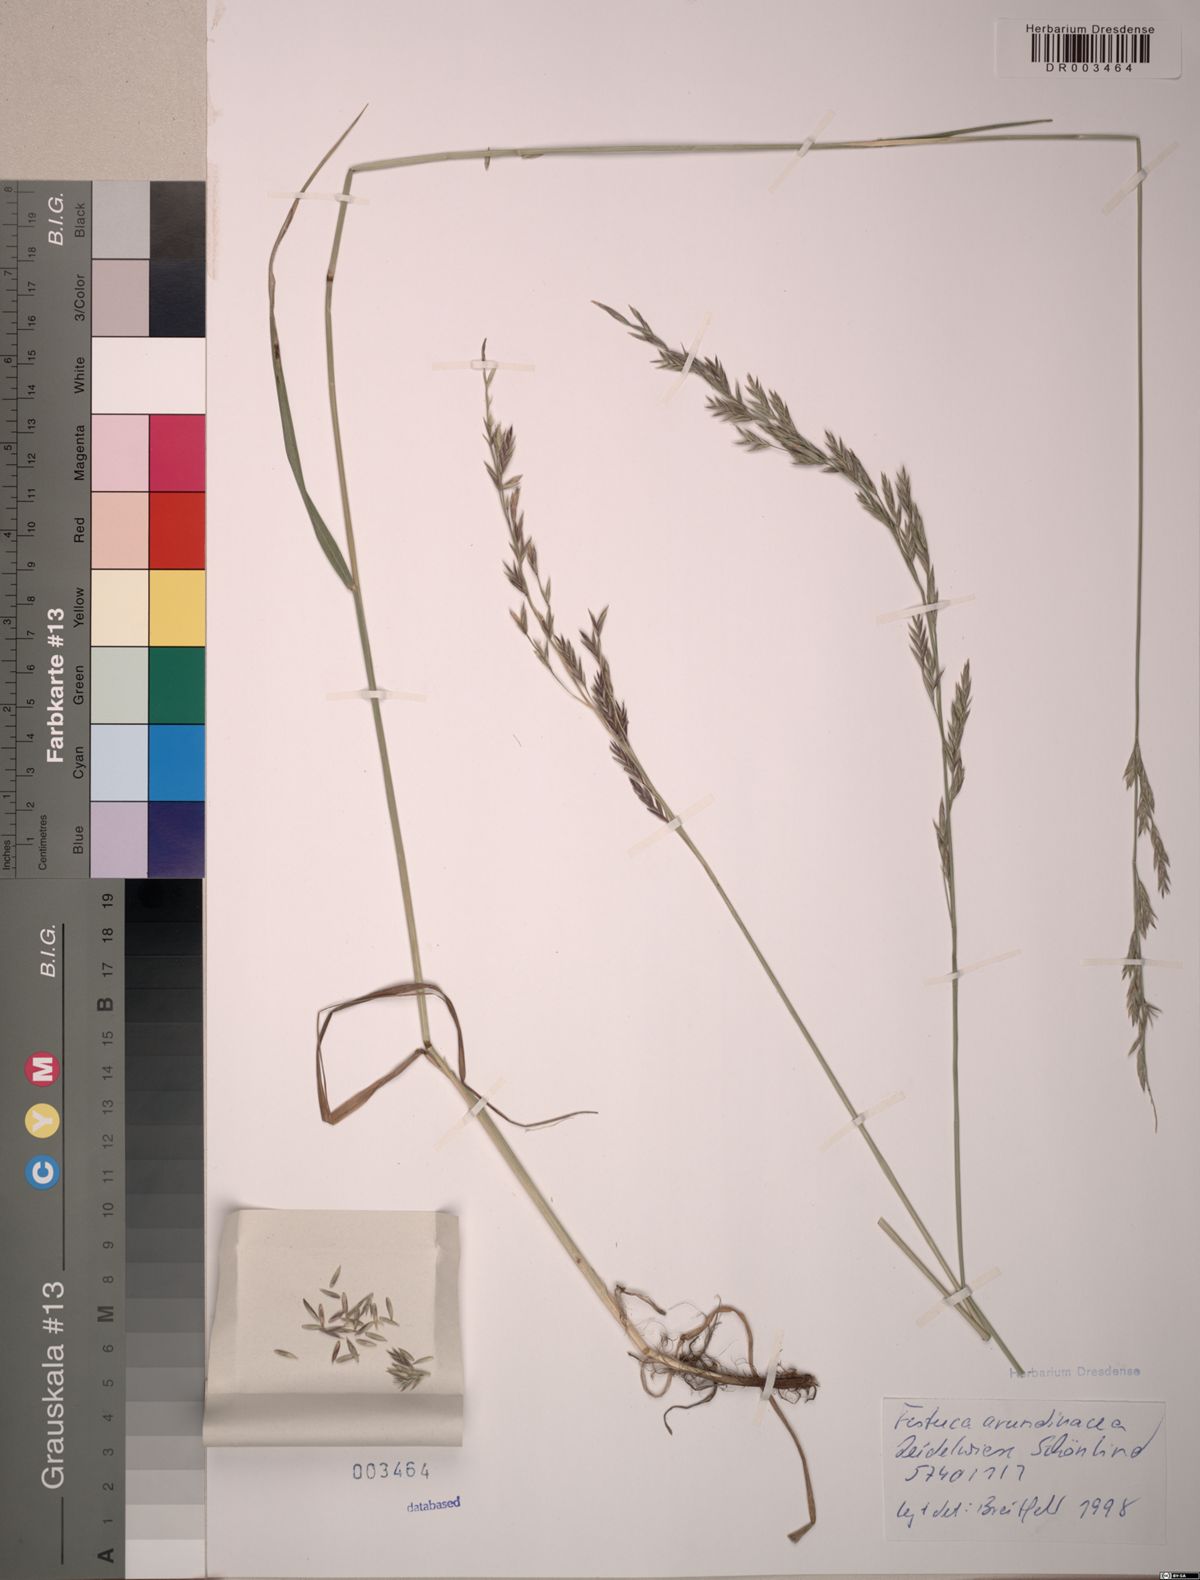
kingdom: Plantae
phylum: Tracheophyta
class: Liliopsida
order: Poales
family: Poaceae
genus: Lolium
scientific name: Lolium arundinaceum
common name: Reed fescue
